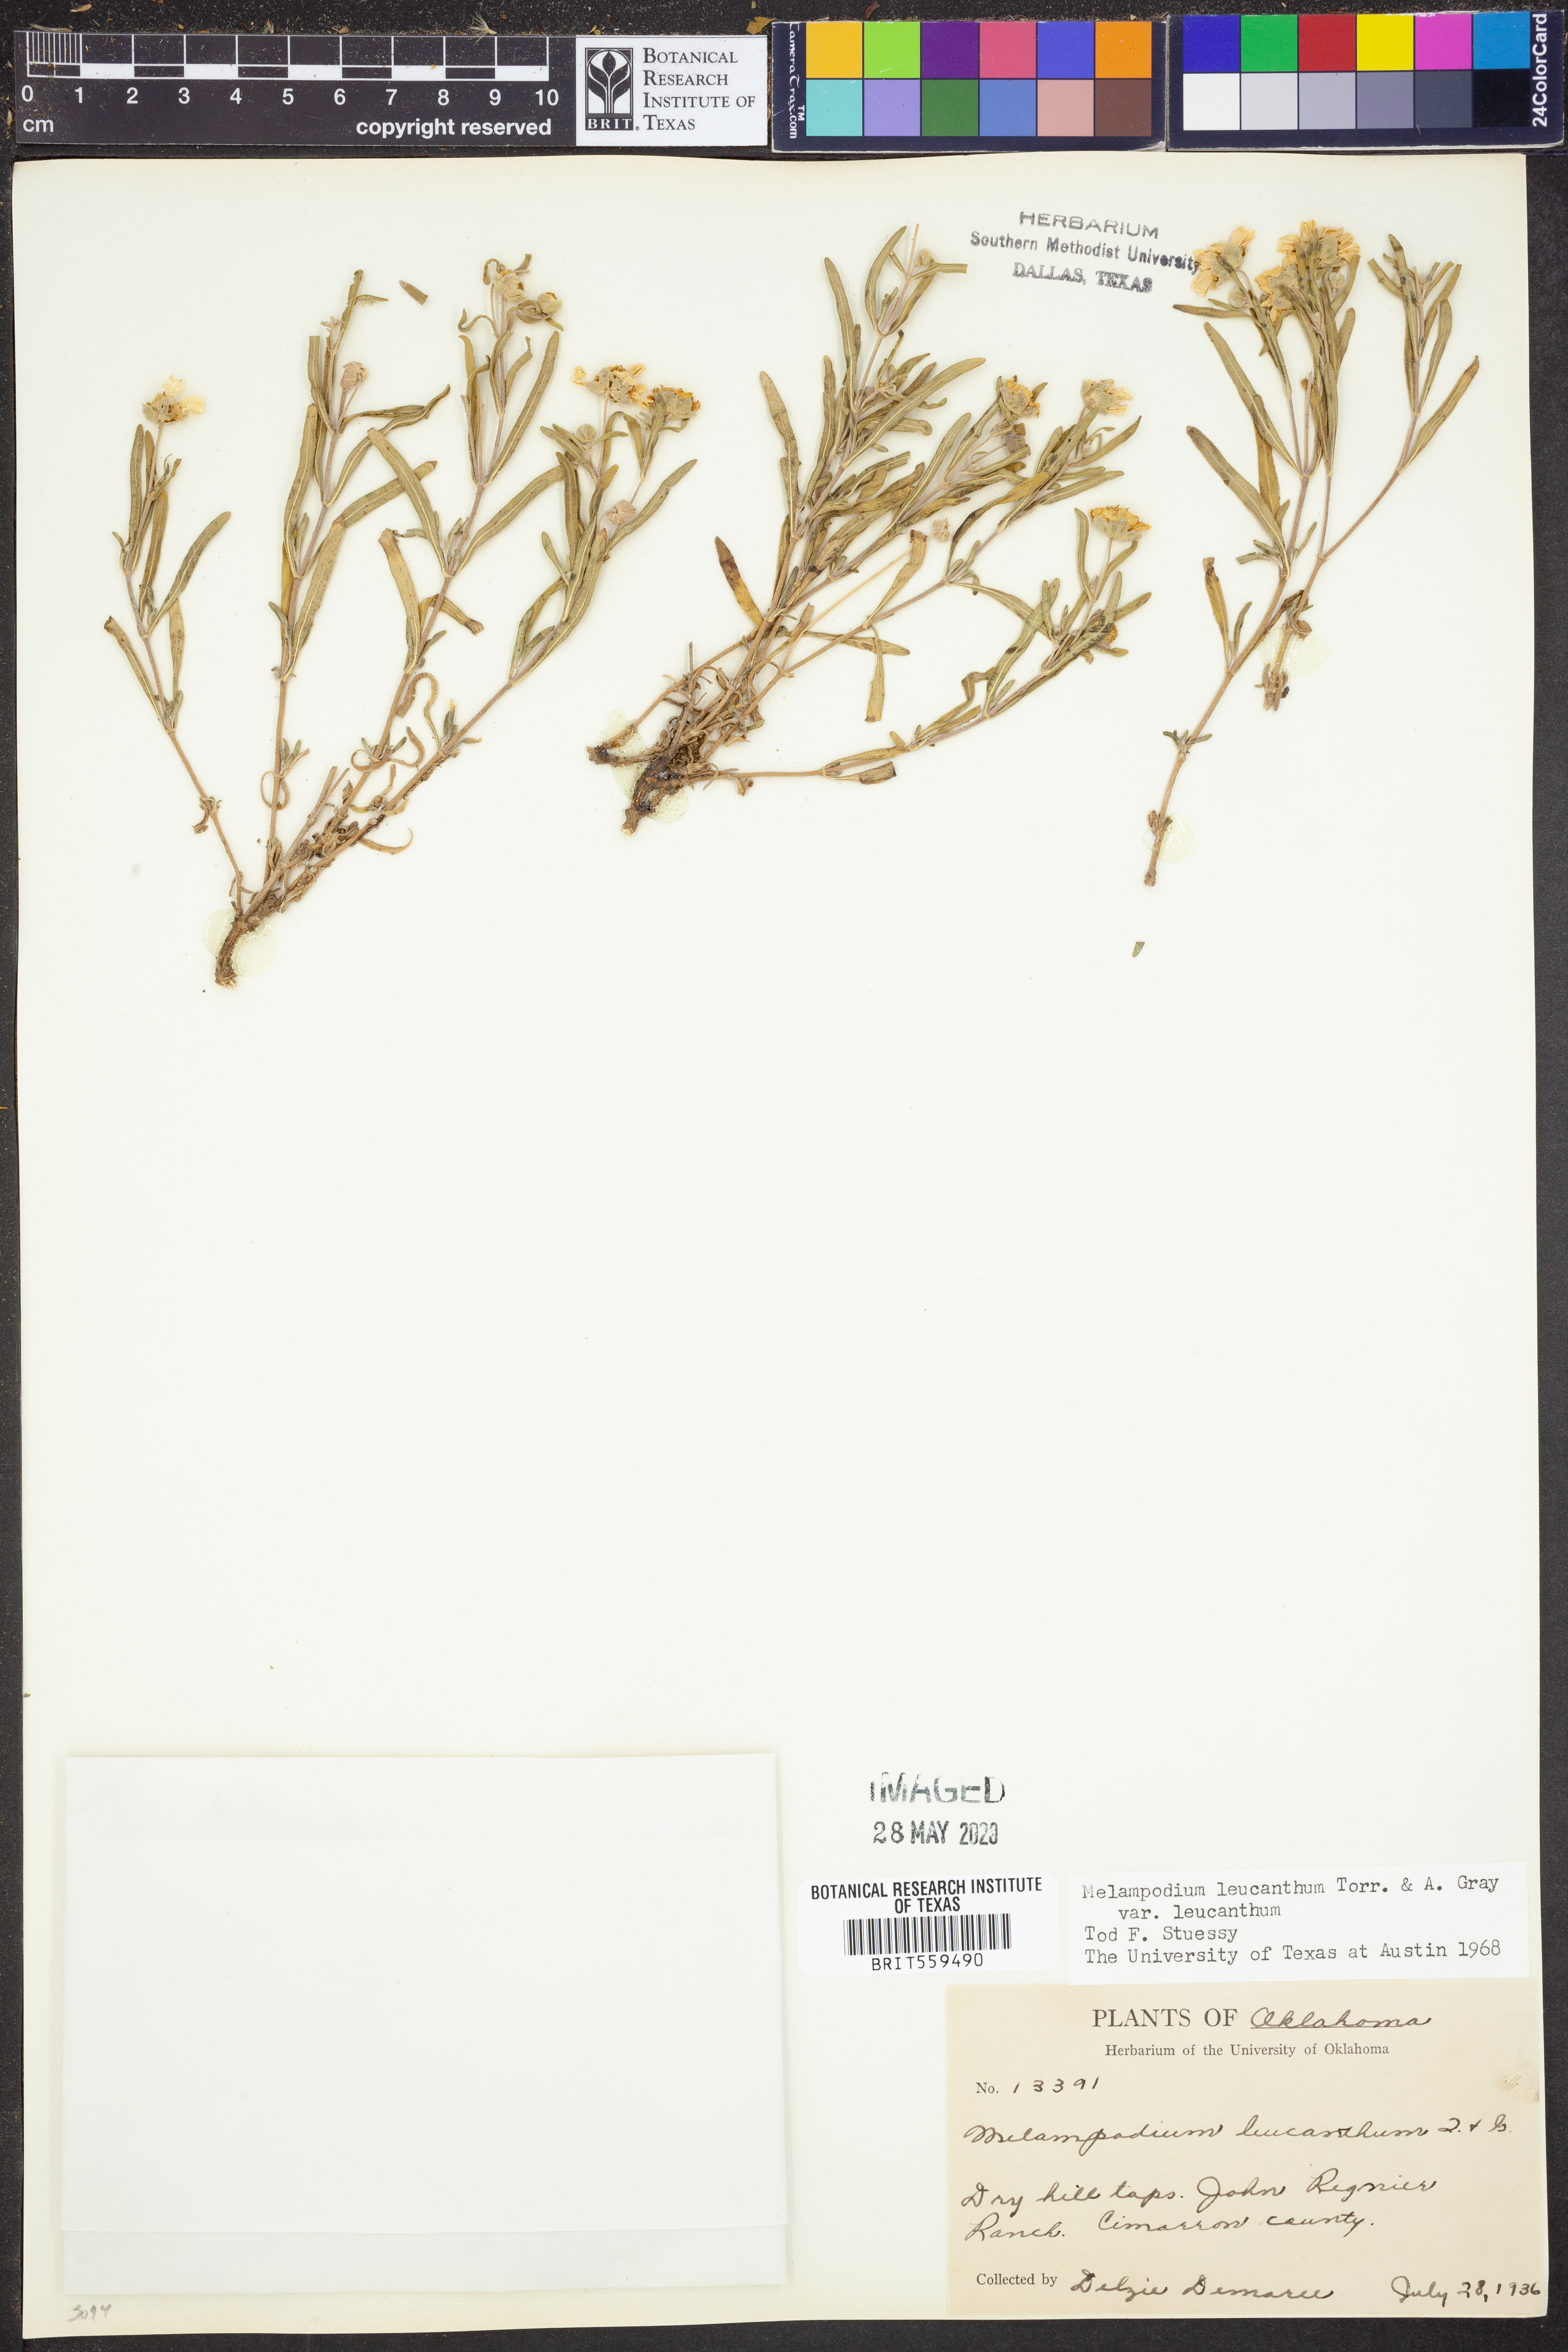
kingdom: Plantae
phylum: Tracheophyta
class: Magnoliopsida
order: Asterales
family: Asteraceae
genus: Melampodium
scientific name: Melampodium leucanthum
